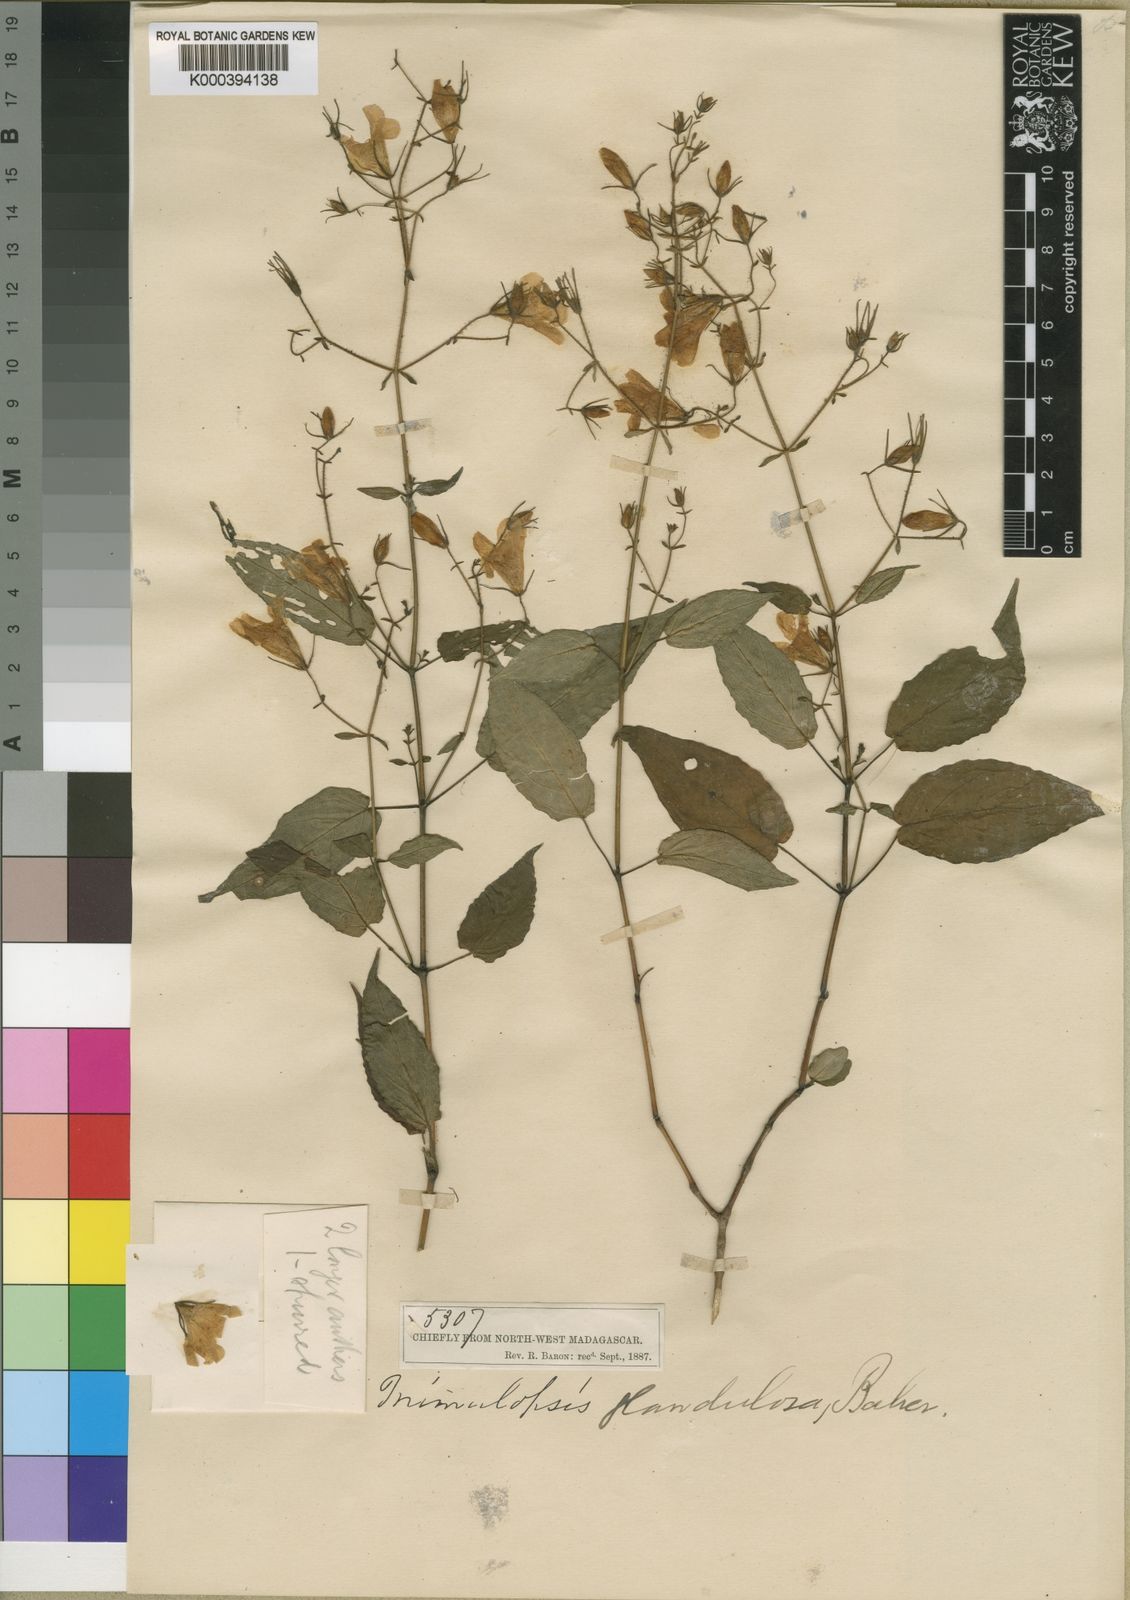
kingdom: Plantae
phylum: Tracheophyta
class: Magnoliopsida
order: Lamiales
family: Acanthaceae
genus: Mimulopsis
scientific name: Mimulopsis
